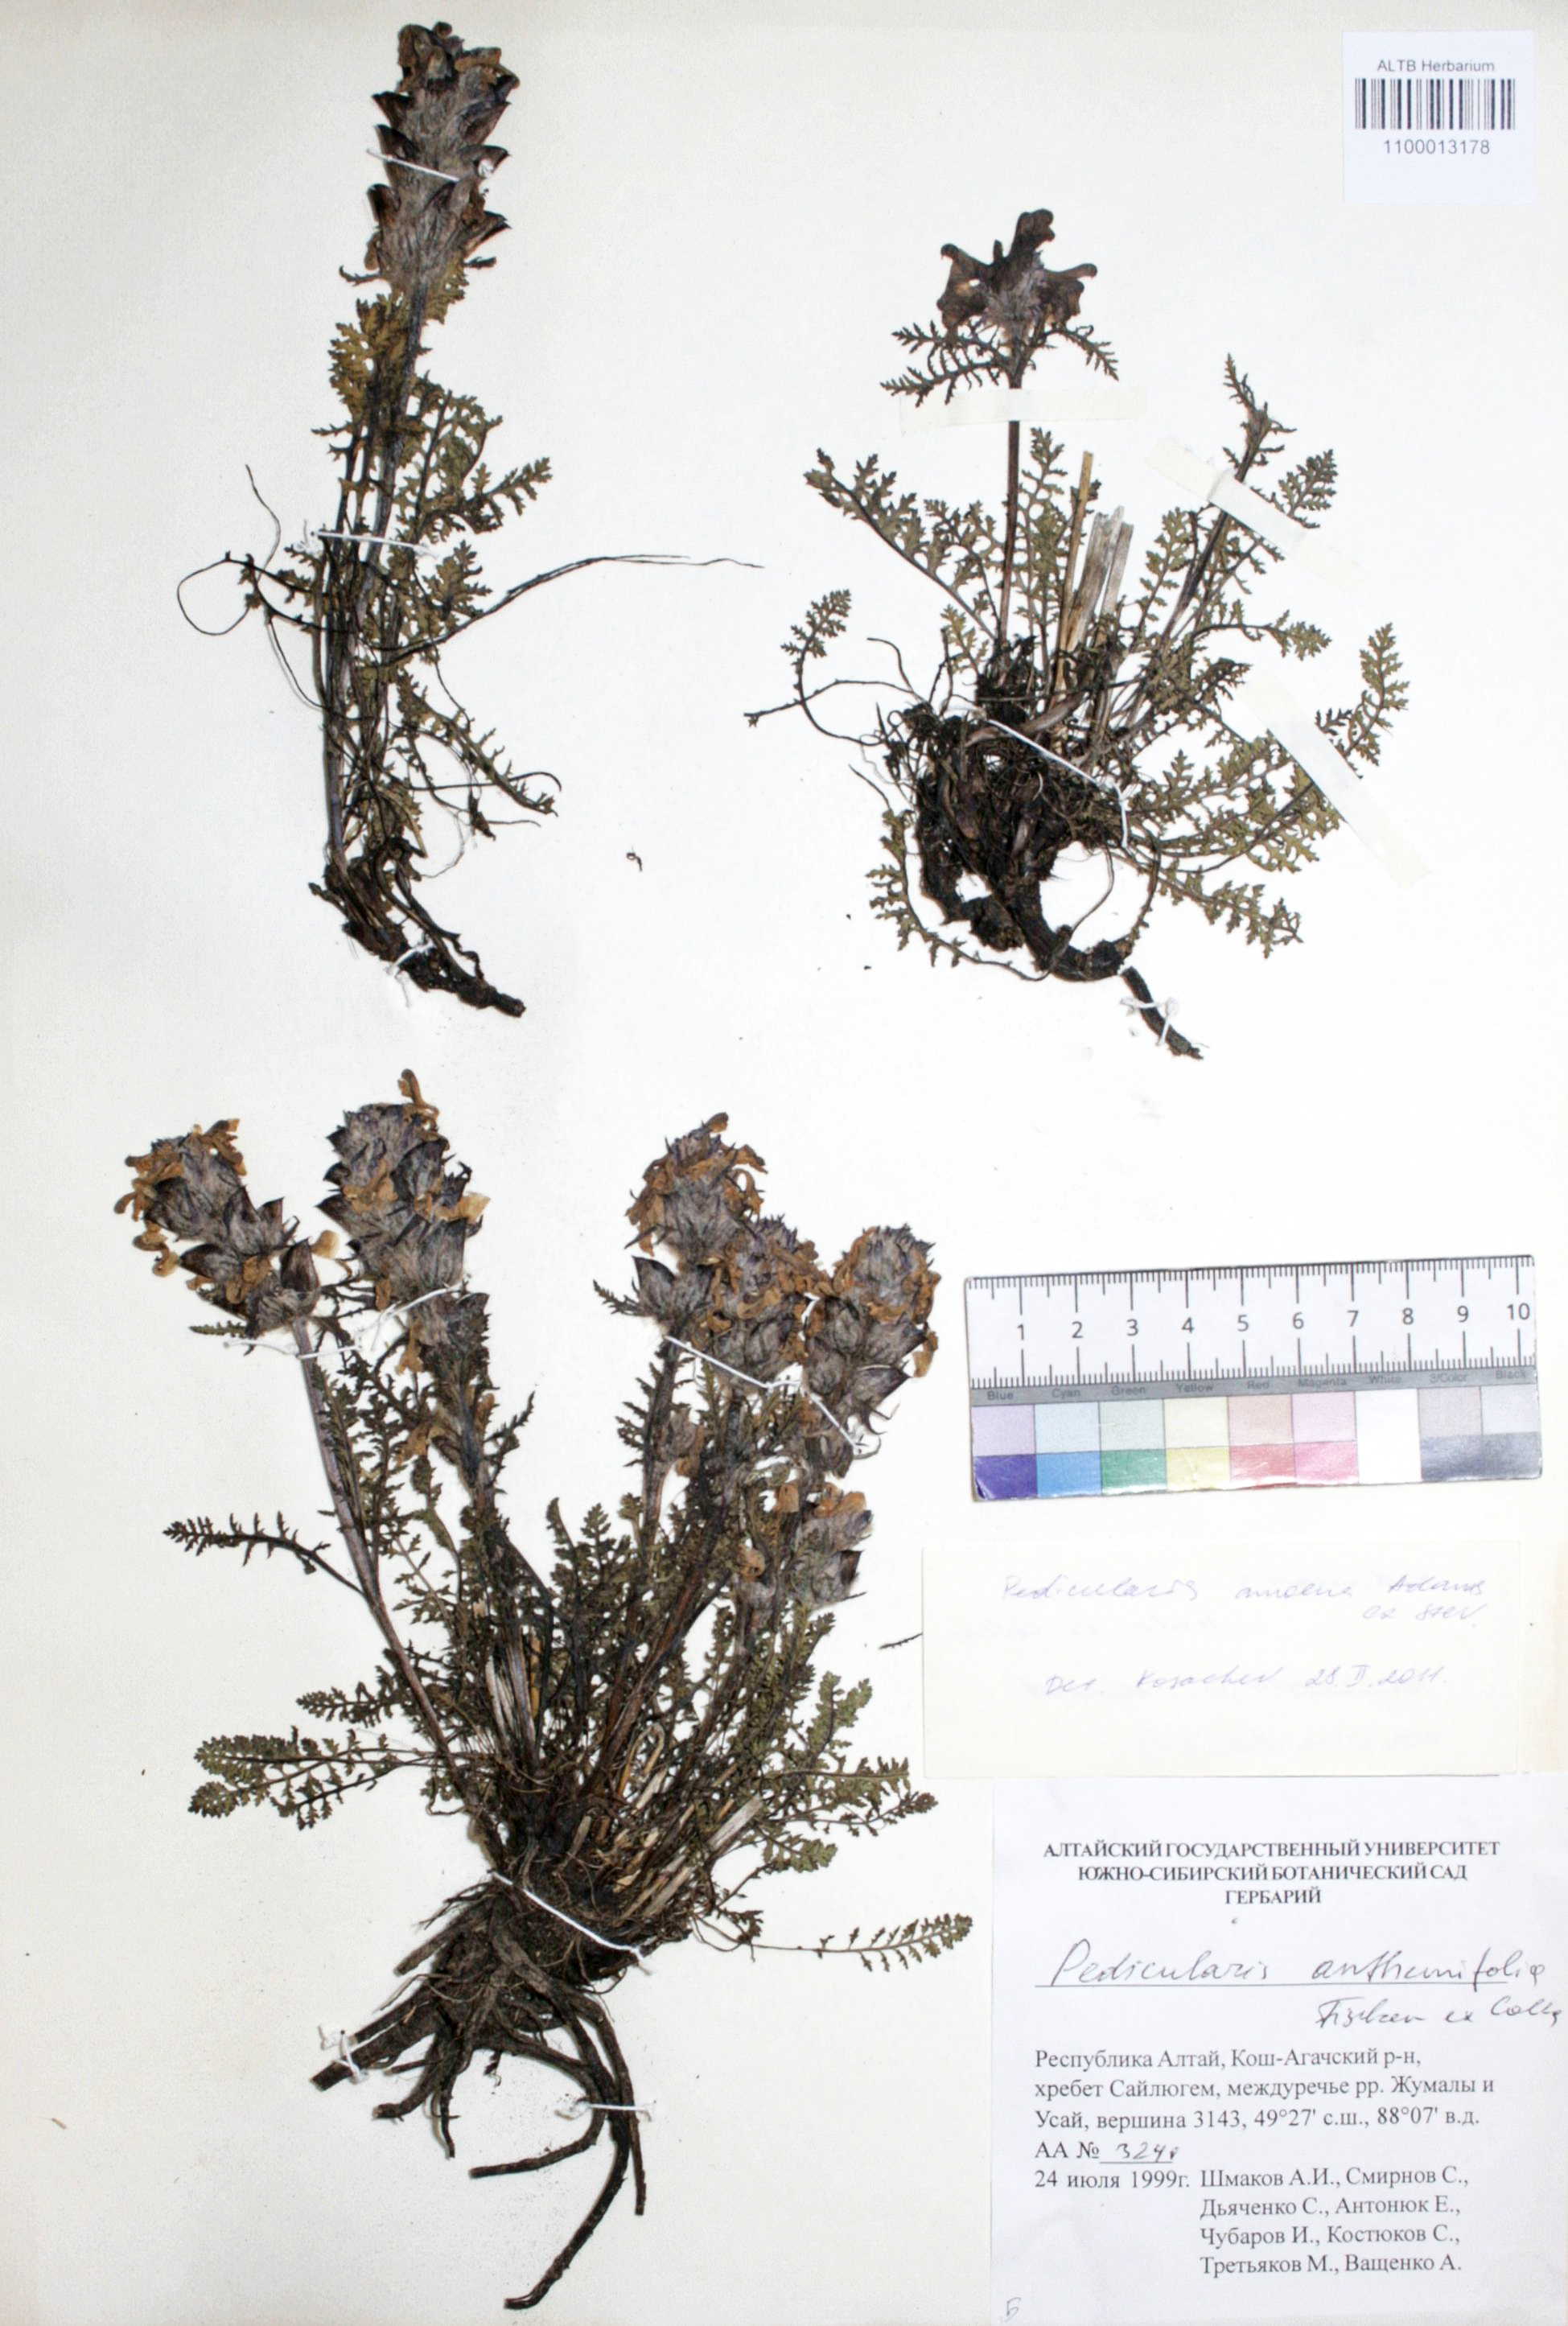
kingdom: Plantae
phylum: Tracheophyta
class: Magnoliopsida
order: Lamiales
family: Orobanchaceae
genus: Pedicularis
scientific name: Pedicularis amoena
